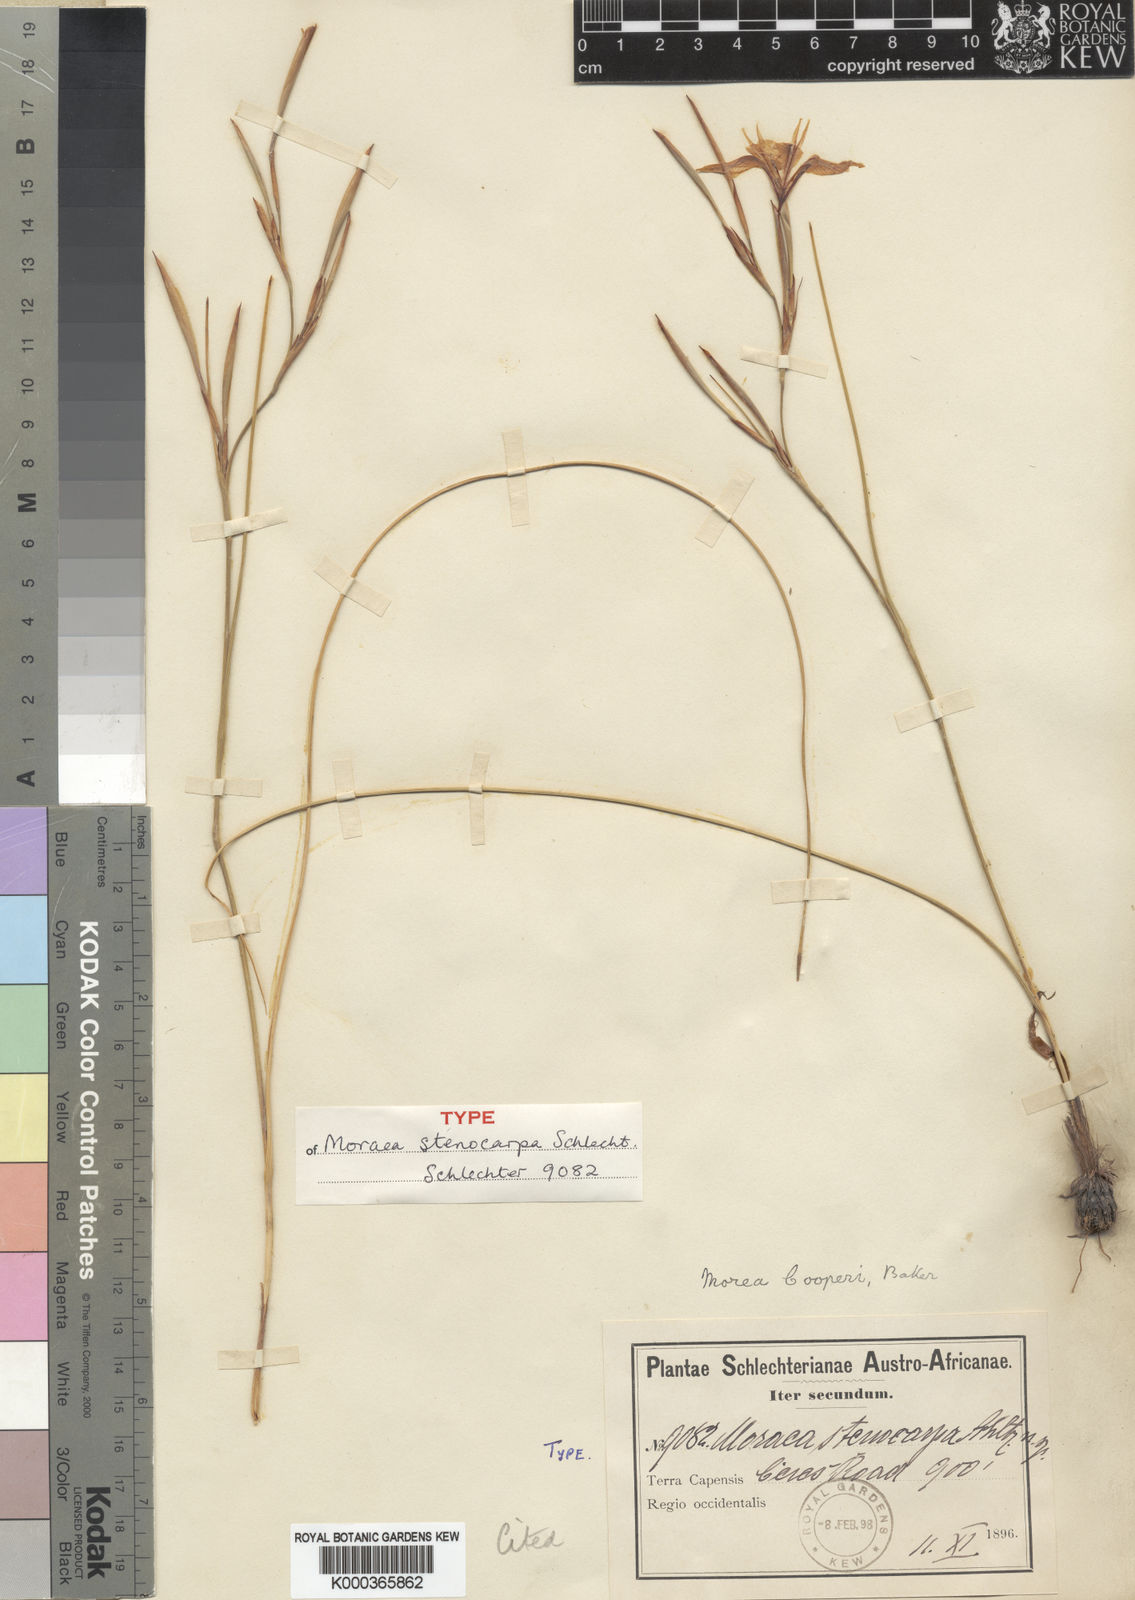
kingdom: Plantae
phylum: Tracheophyta
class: Liliopsida
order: Asparagales
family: Iridaceae
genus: Moraea
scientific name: Moraea cooperi
